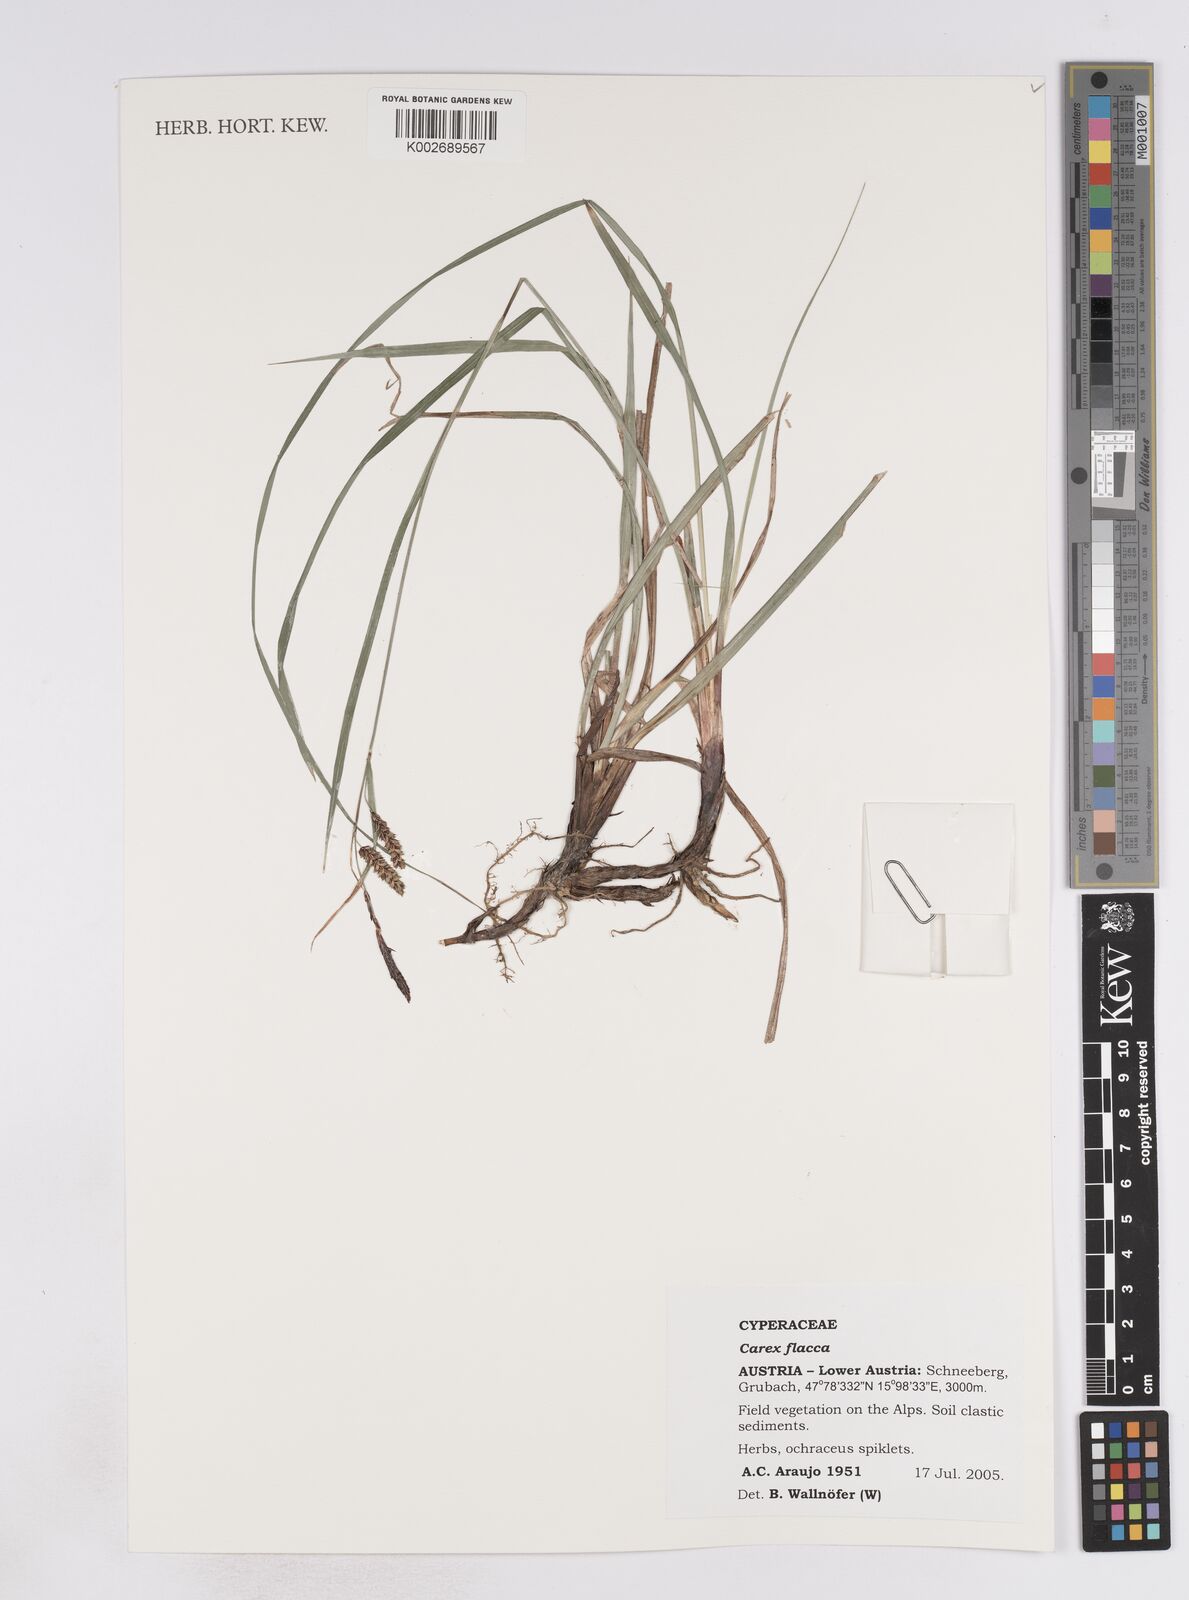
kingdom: Plantae
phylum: Tracheophyta
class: Liliopsida
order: Poales
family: Cyperaceae
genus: Carex
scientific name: Carex flacca
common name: Glaucous sedge
